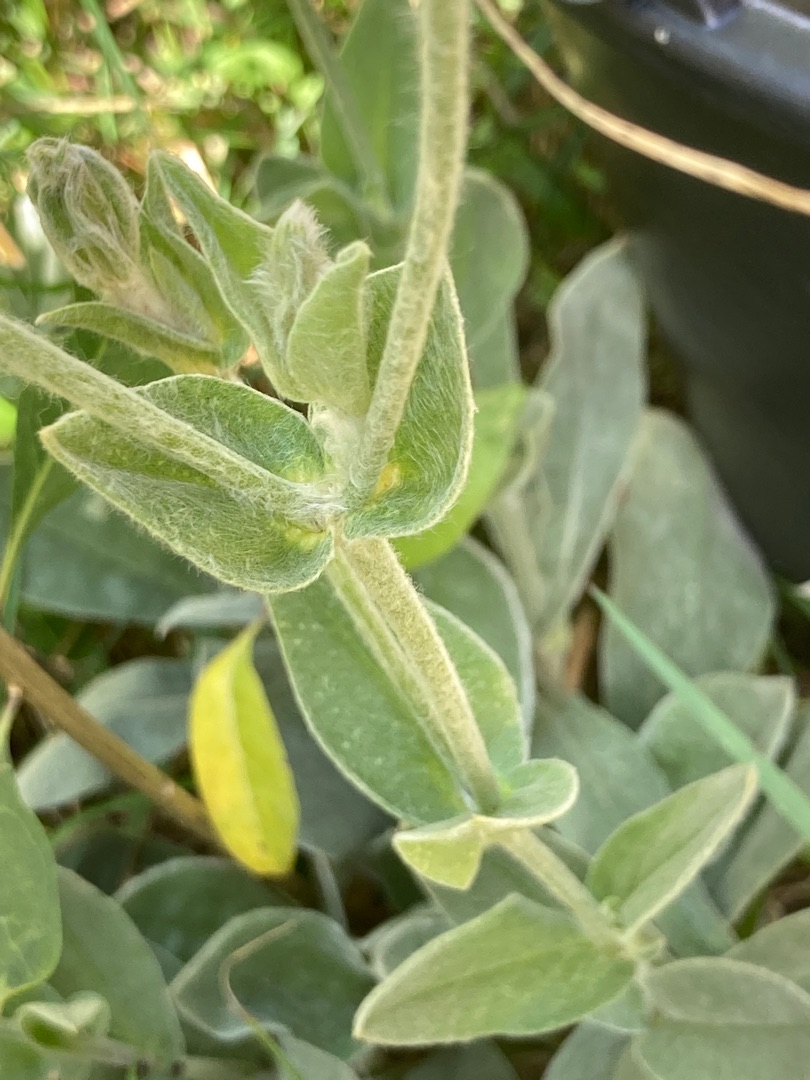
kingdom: Plantae
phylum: Tracheophyta
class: Magnoliopsida
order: Caryophyllales
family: Caryophyllaceae
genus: Silene
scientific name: Silene coronaria
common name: Fiksernellike
